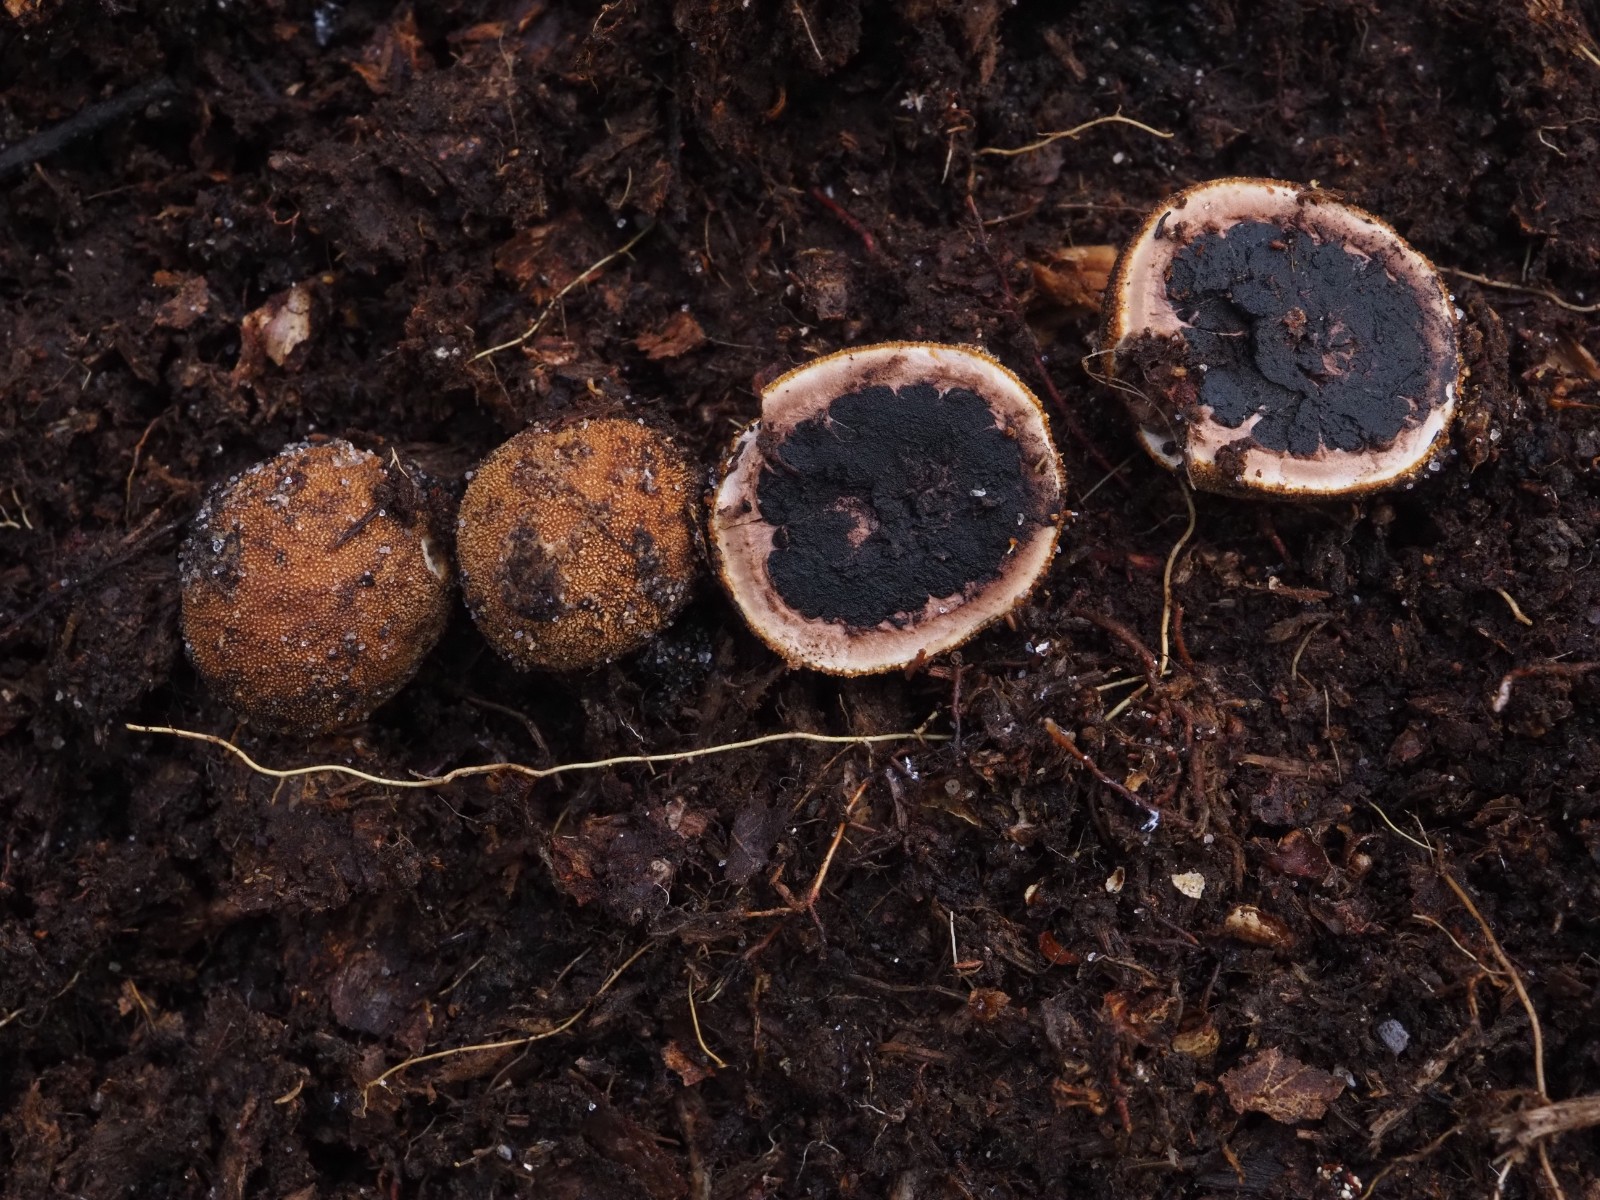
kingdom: Fungi
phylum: Ascomycota
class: Eurotiomycetes
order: Eurotiales
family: Elaphomycetaceae
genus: Elaphomyces
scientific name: Elaphomyces
